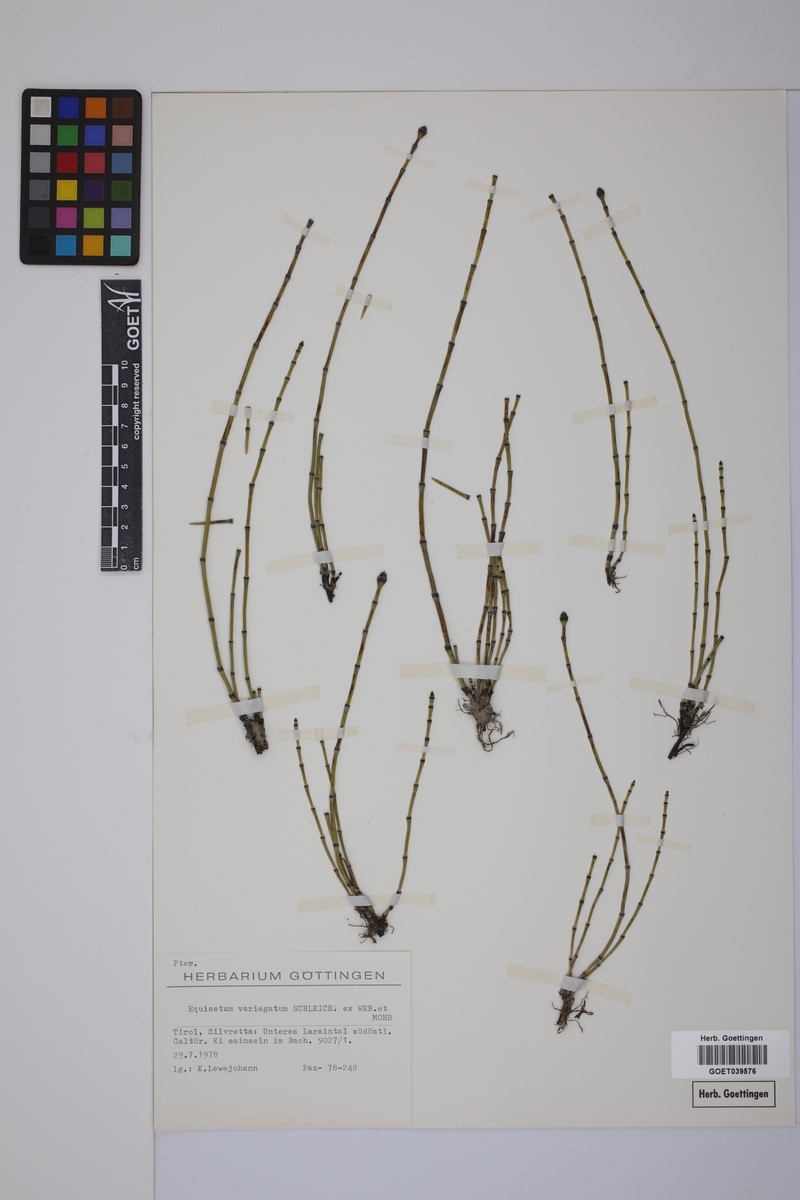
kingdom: Plantae
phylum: Tracheophyta
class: Polypodiopsida
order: Equisetales
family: Equisetaceae
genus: Equisetum
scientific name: Equisetum variegatum
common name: Variegated horsetail
